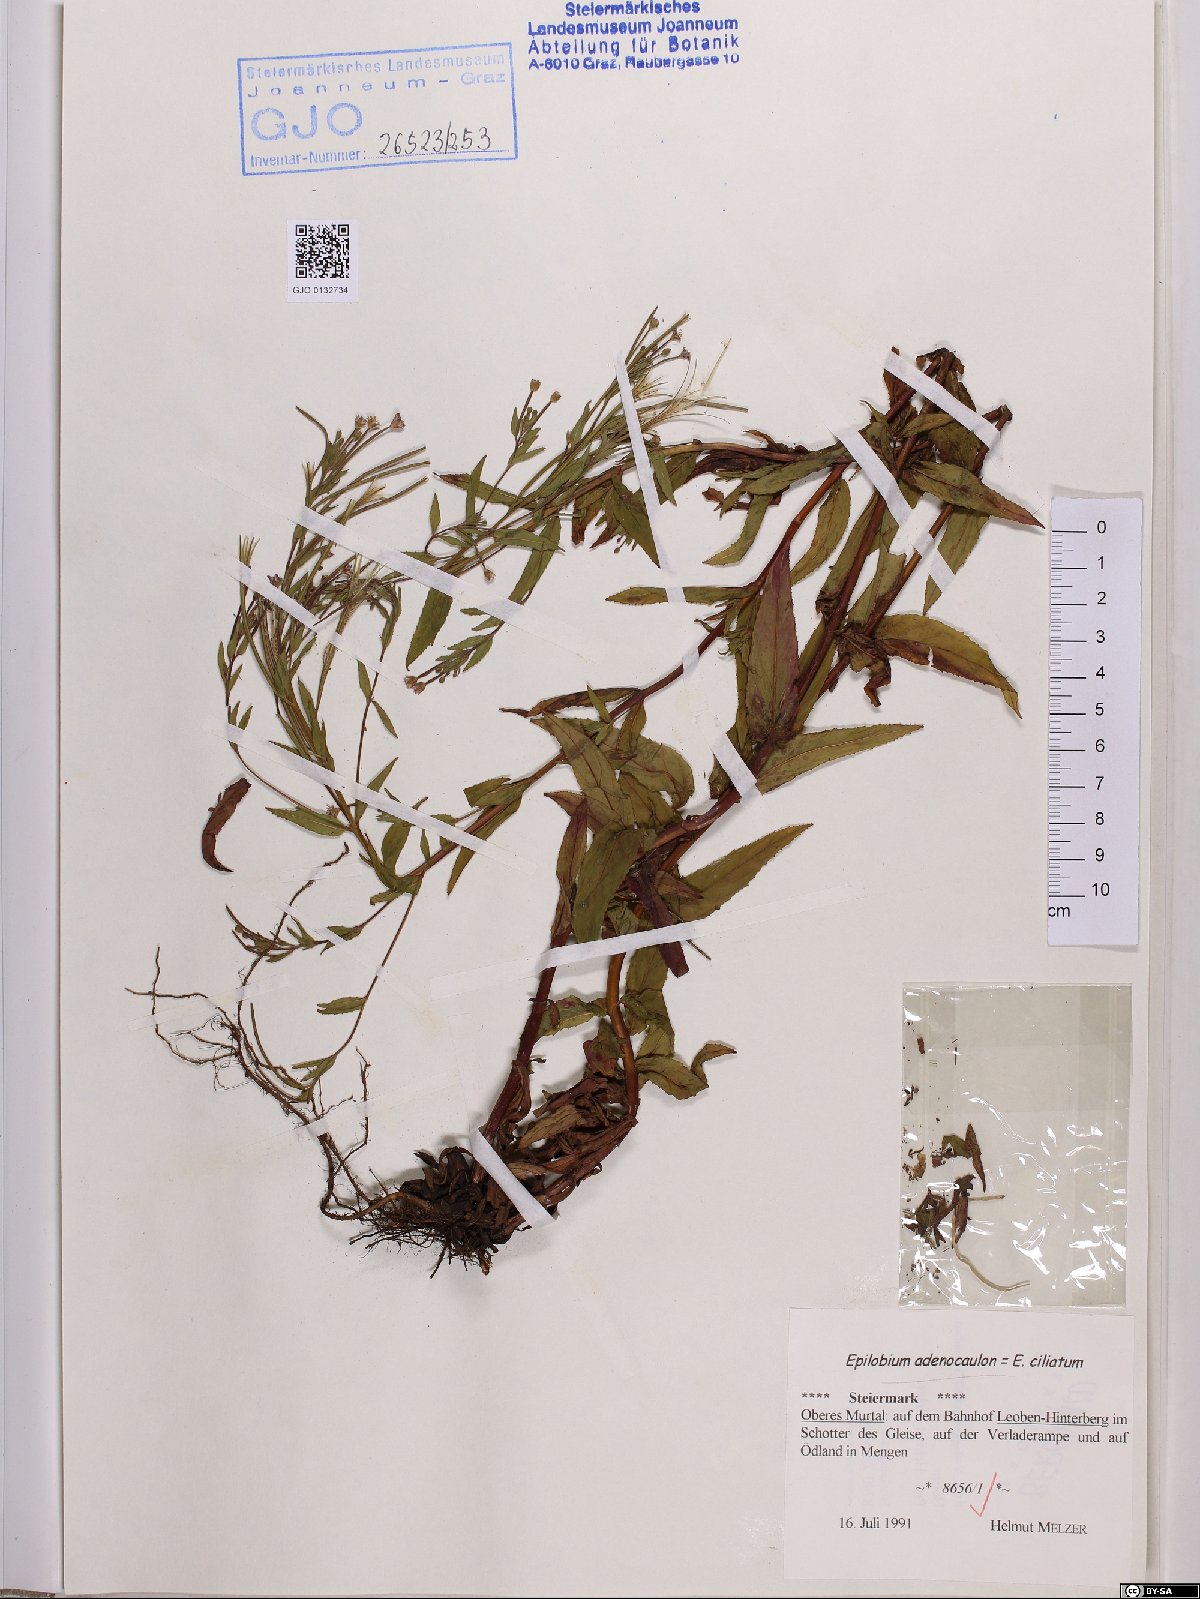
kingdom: Plantae
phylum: Tracheophyta
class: Magnoliopsida
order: Myrtales
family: Onagraceae
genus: Epilobium
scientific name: Epilobium ciliatum
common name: American willowherb
